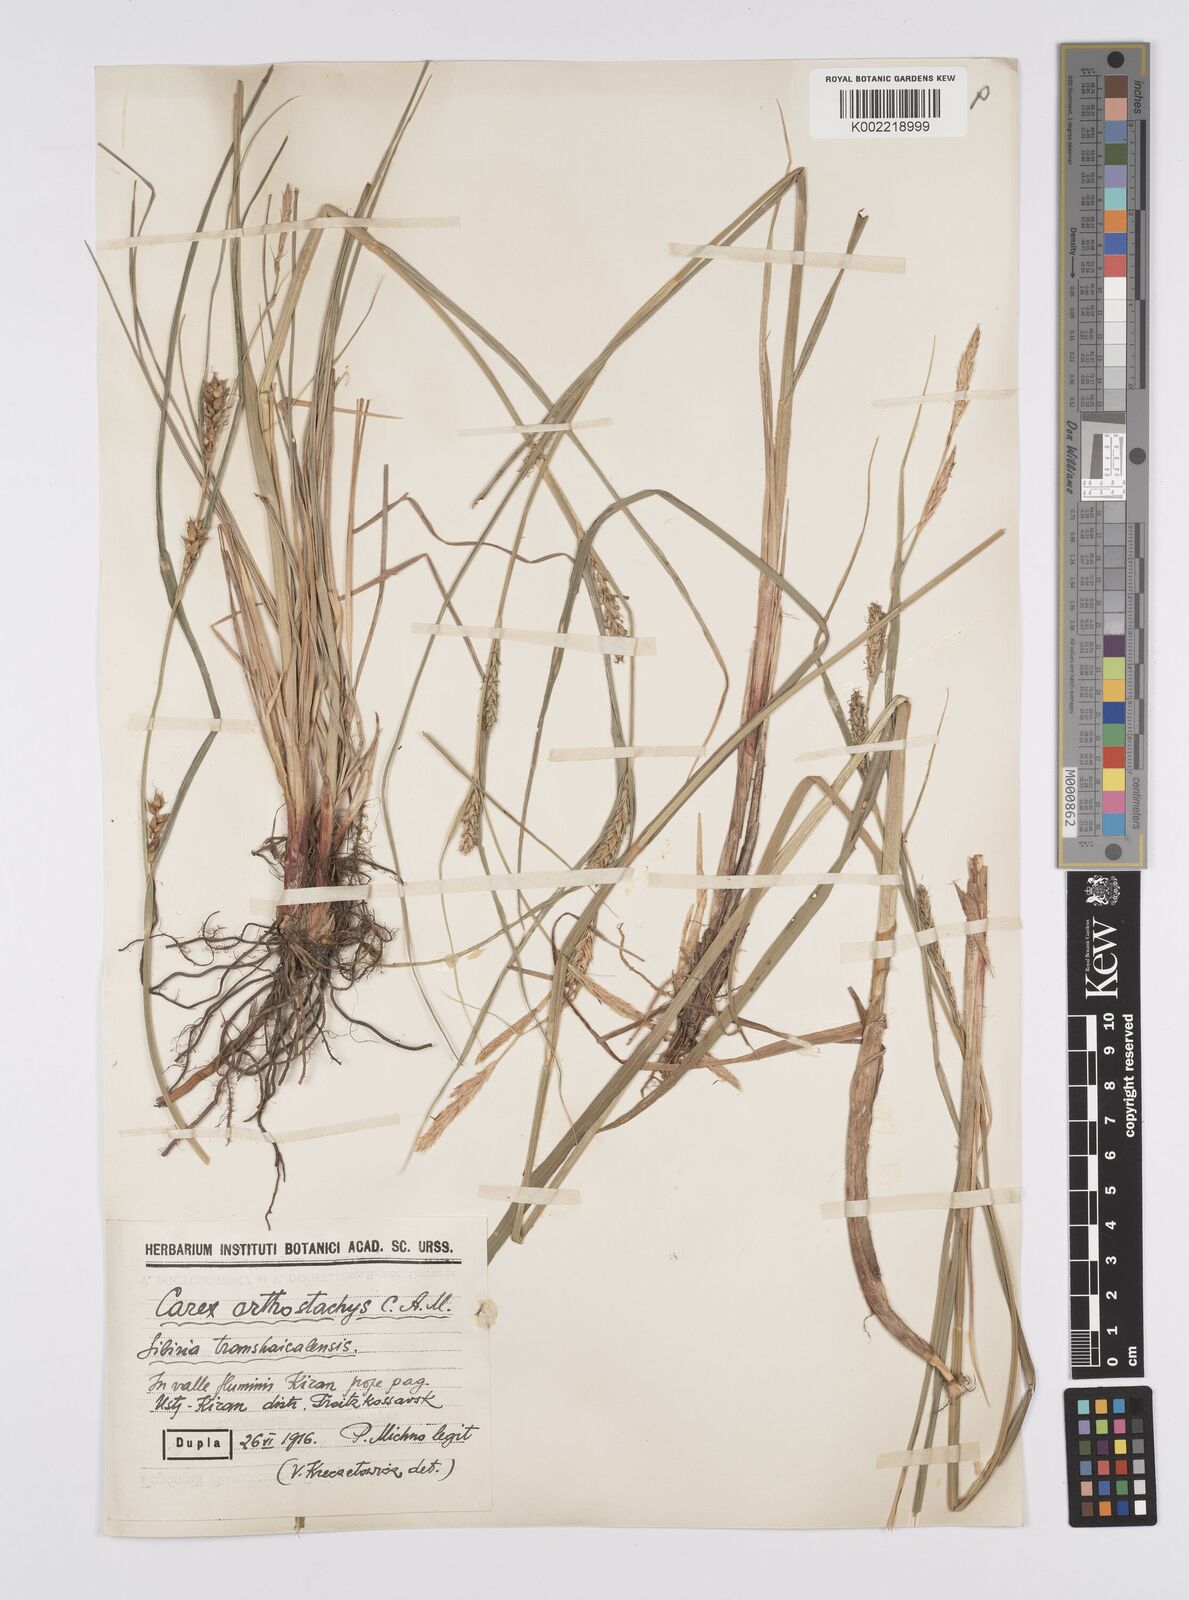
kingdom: Plantae
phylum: Tracheophyta
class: Liliopsida
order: Poales
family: Cyperaceae
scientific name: Cyperaceae
